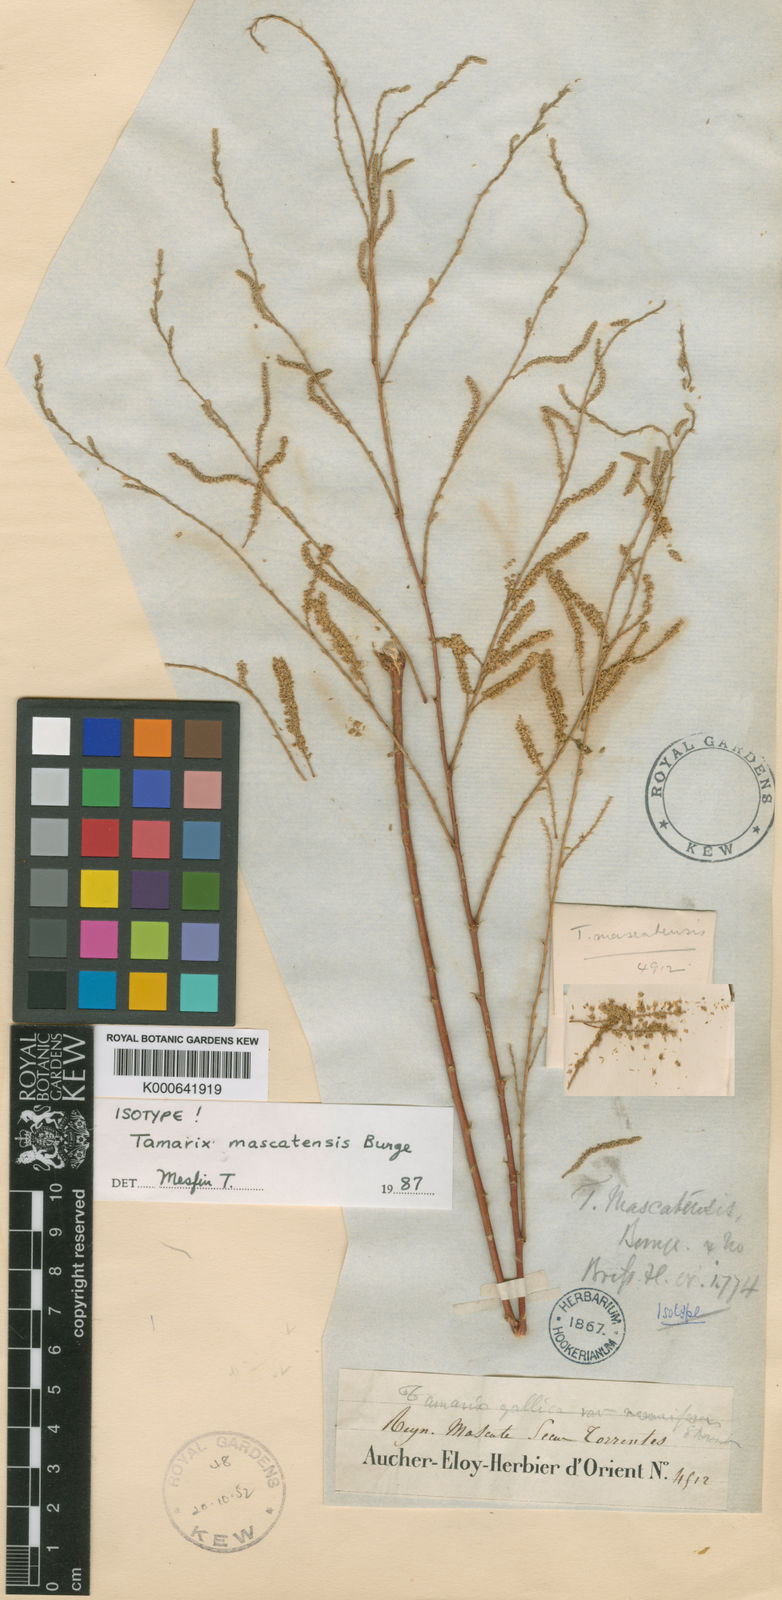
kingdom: Plantae
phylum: Tracheophyta
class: Magnoliopsida
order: Caryophyllales
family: Tamaricaceae
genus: Tamarix
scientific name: Tamarix mascatensis
